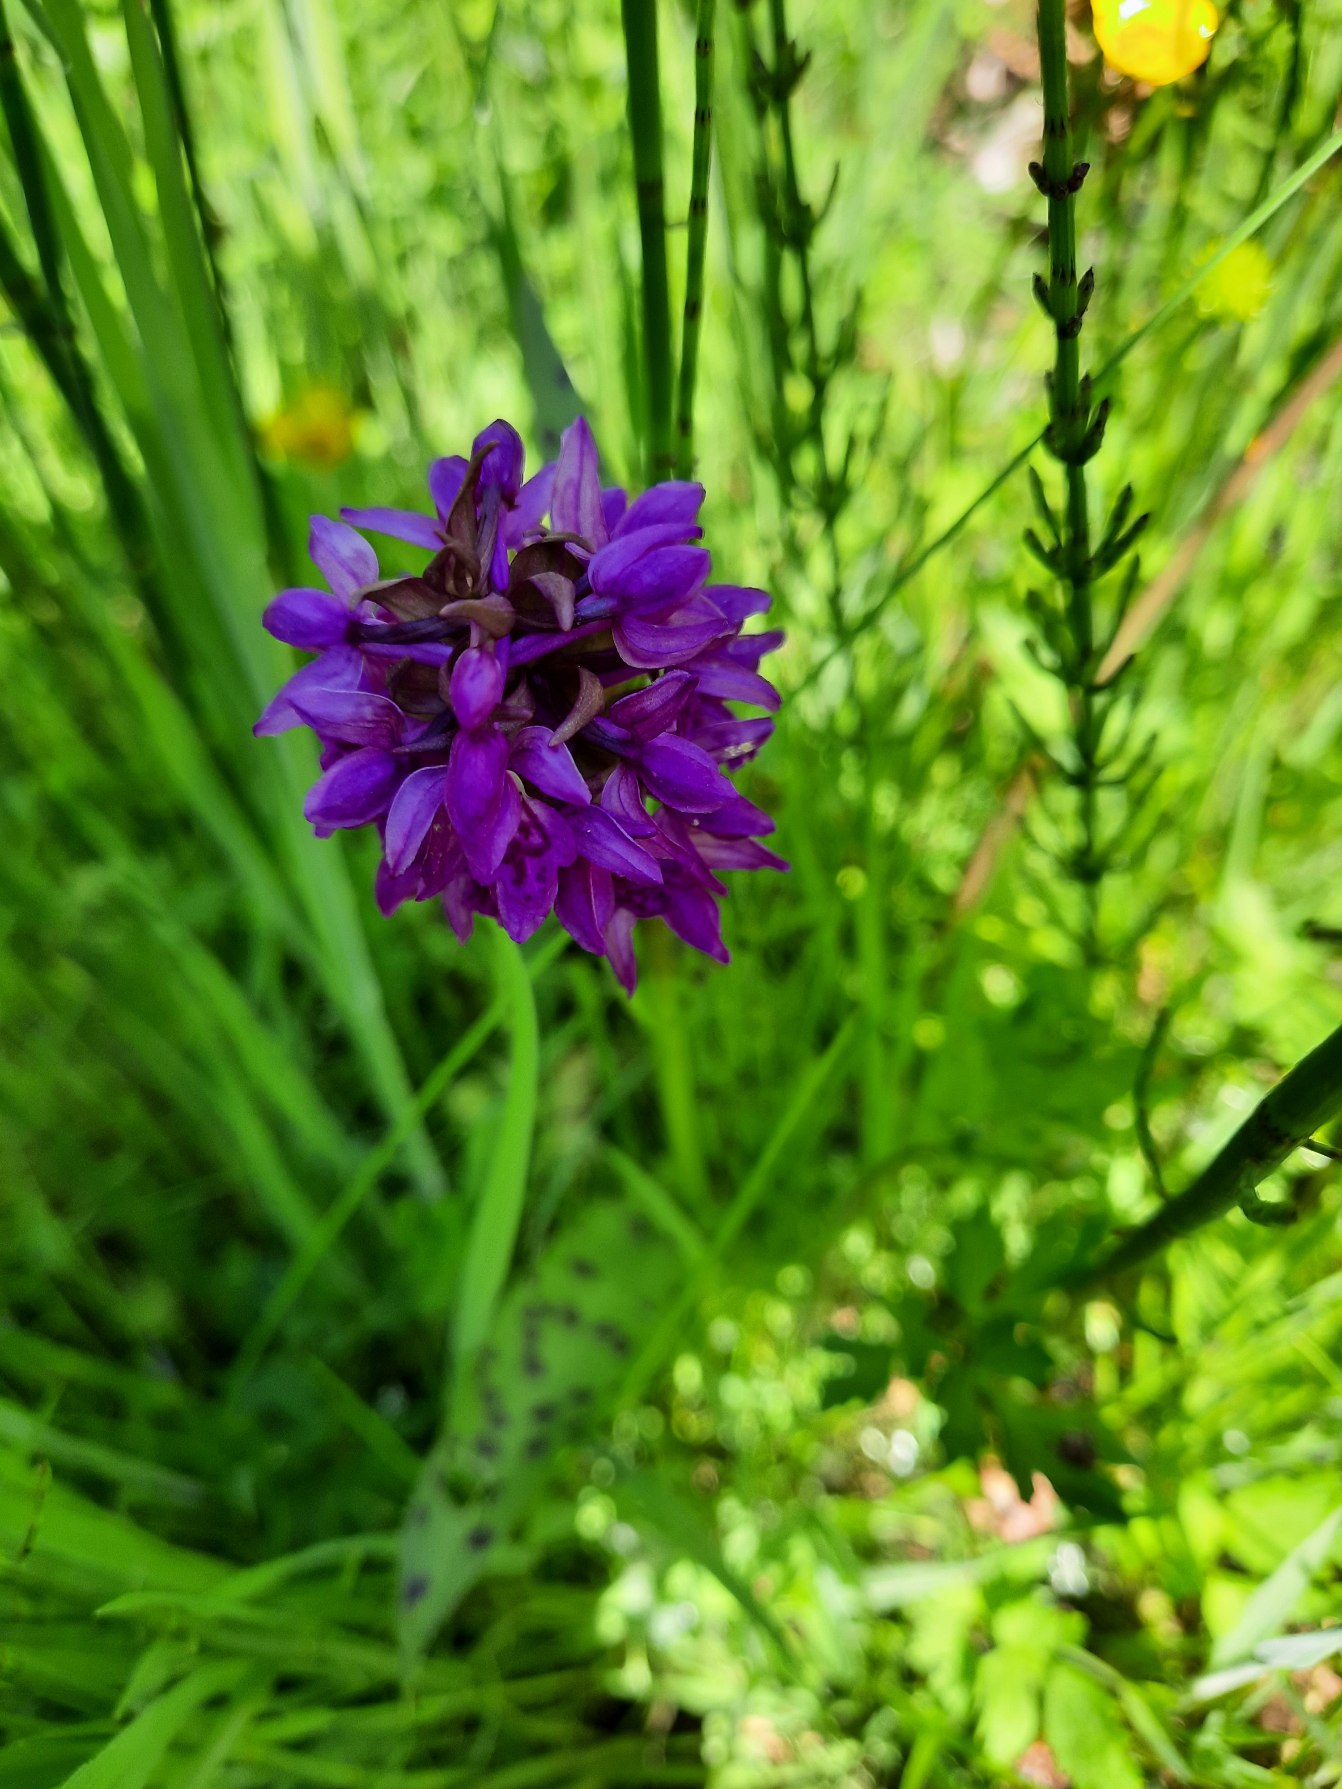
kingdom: Plantae
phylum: Tracheophyta
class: Liliopsida
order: Asparagales
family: Orchidaceae
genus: Dactylorhiza
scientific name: Dactylorhiza majalis
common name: Maj-gøgeurt
